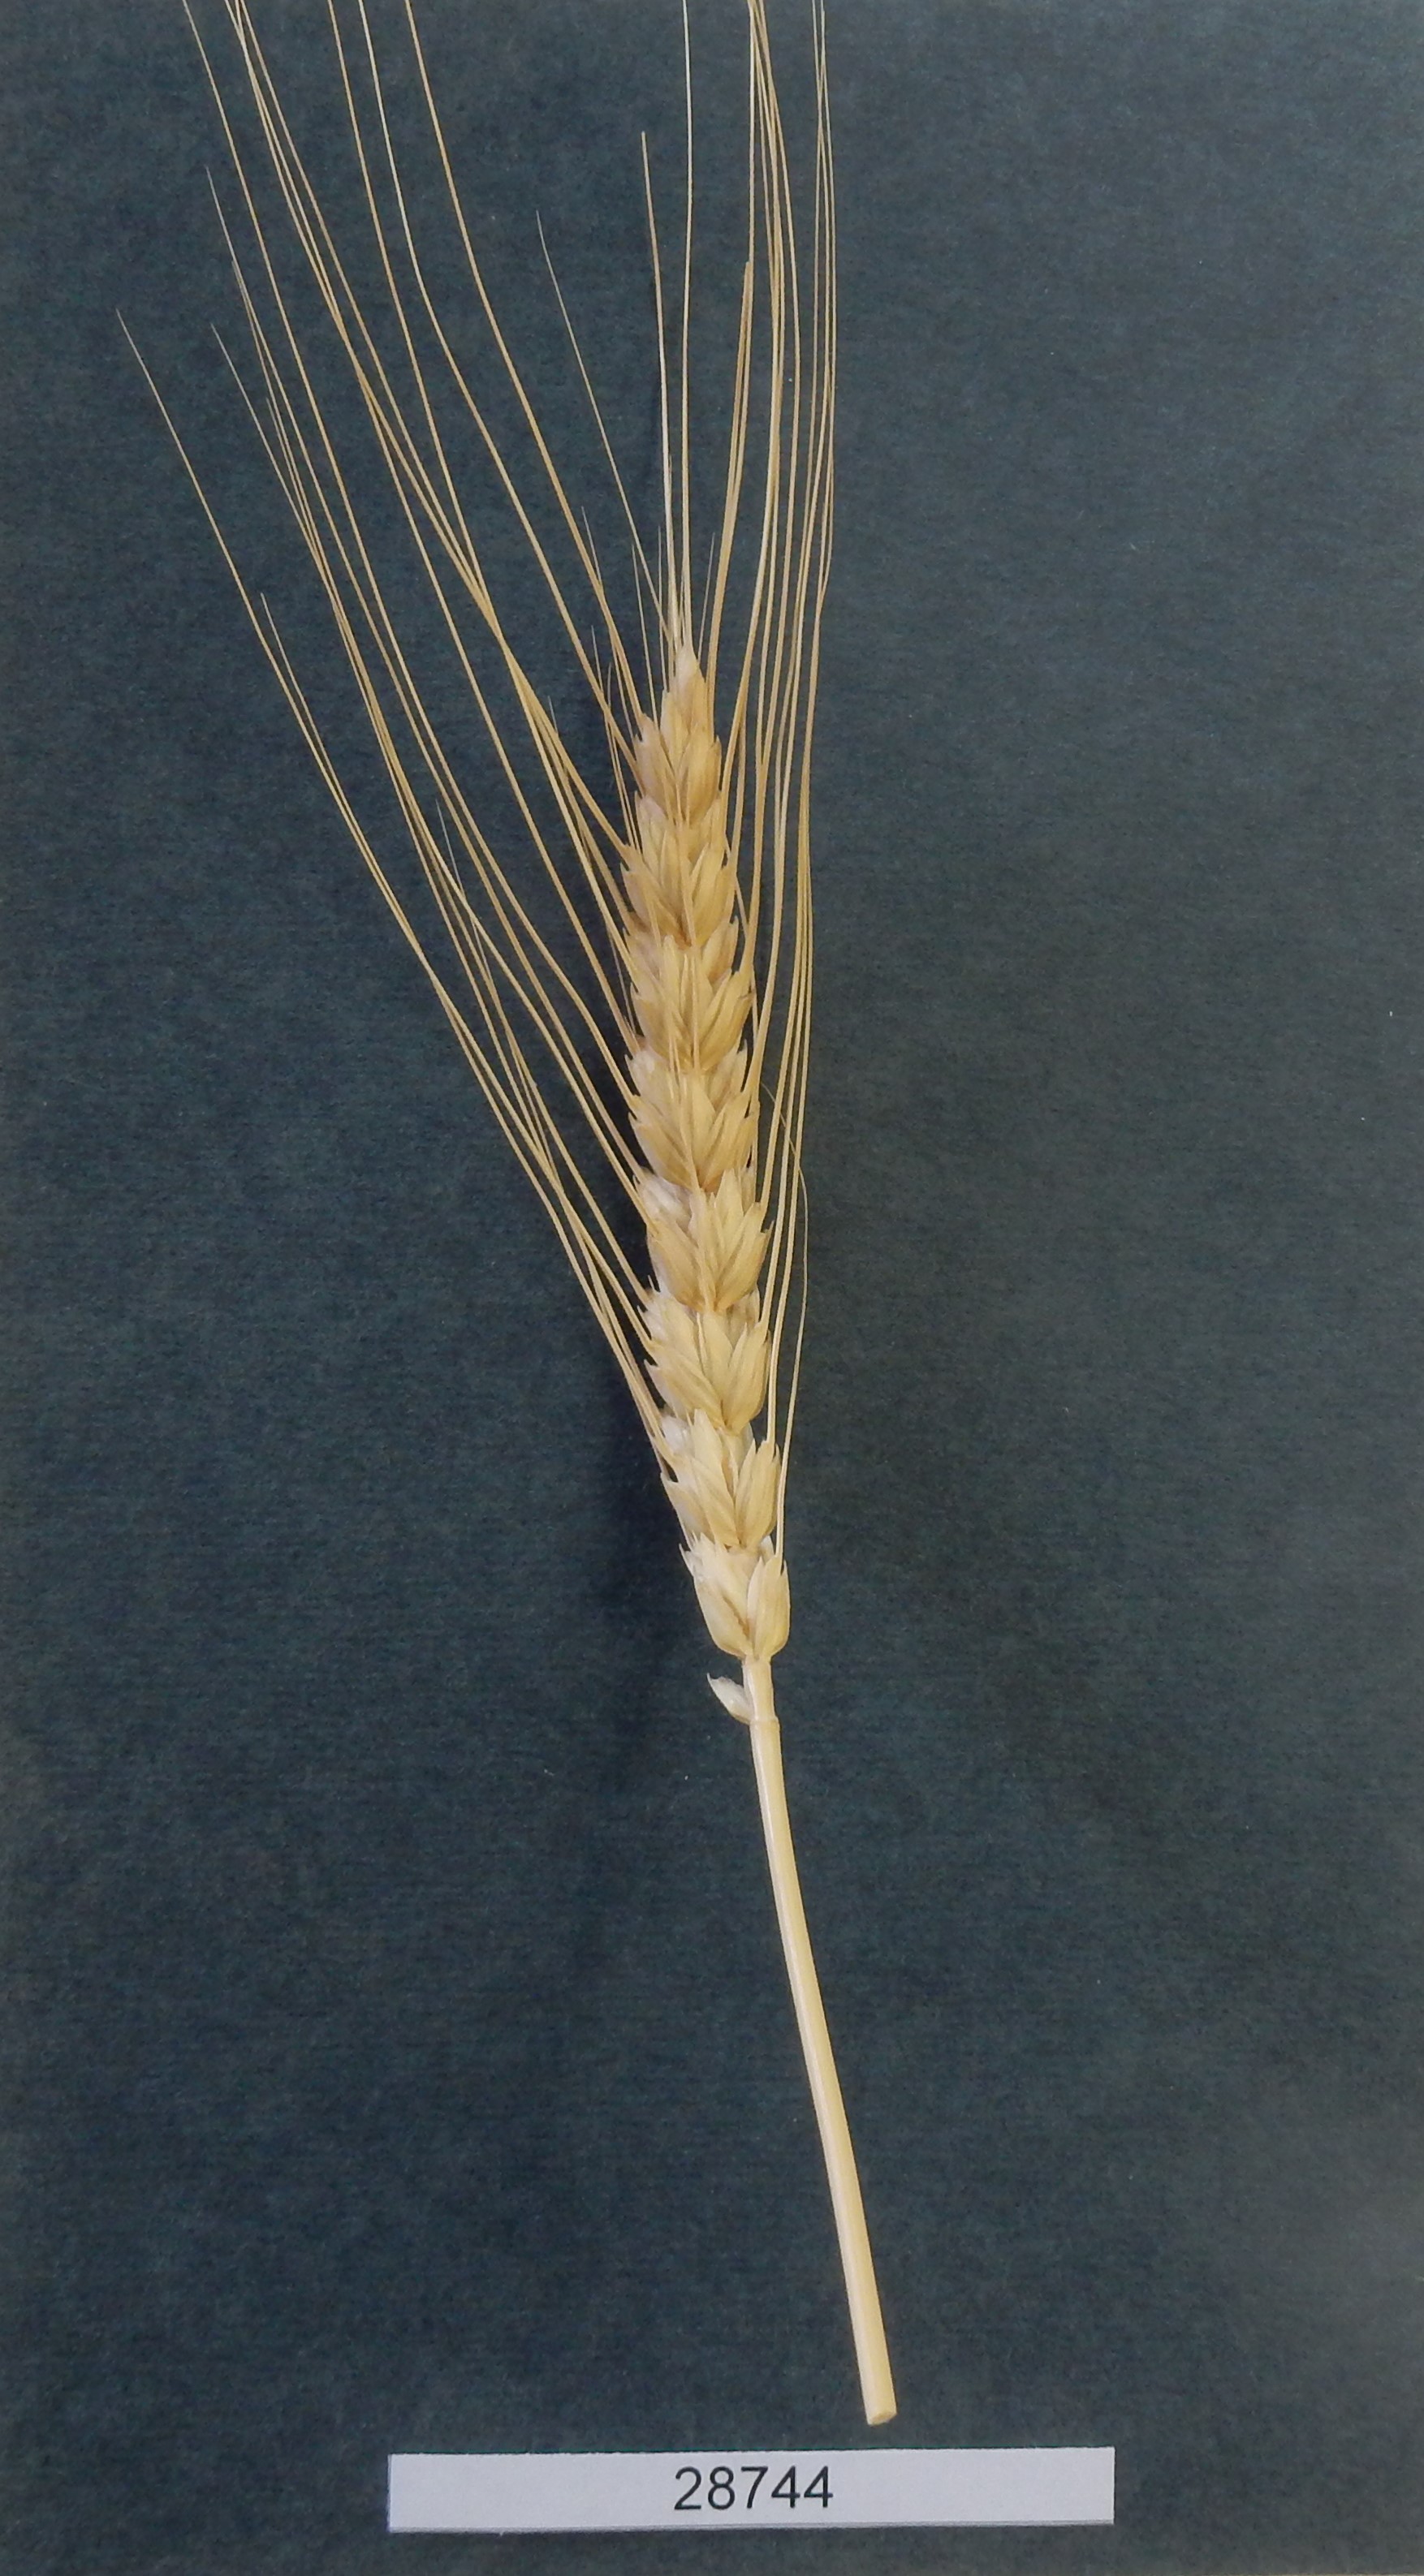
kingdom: Plantae
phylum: Tracheophyta
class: Liliopsida
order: Poales
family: Poaceae
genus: Triticum
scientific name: Triticum aestivum
